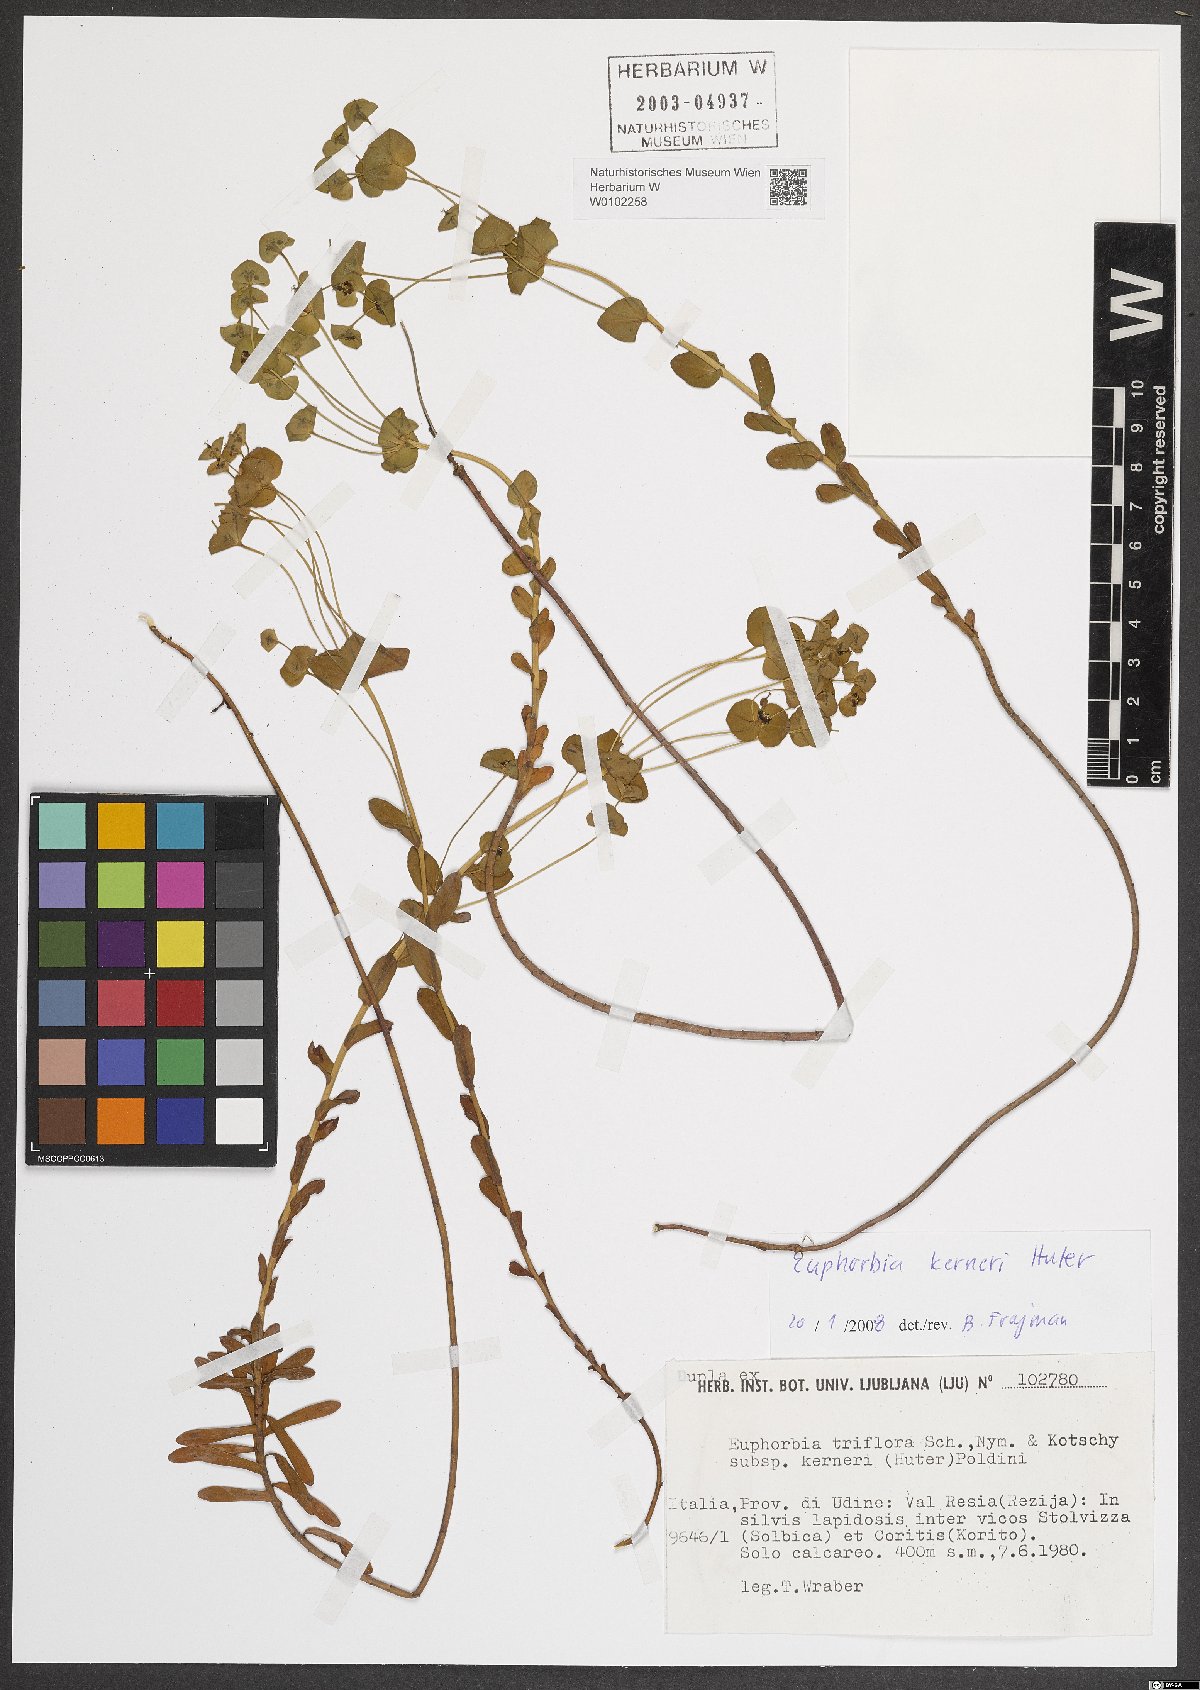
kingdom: Plantae
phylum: Tracheophyta
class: Magnoliopsida
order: Malpighiales
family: Euphorbiaceae
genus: Euphorbia
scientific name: Euphorbia kerneri
